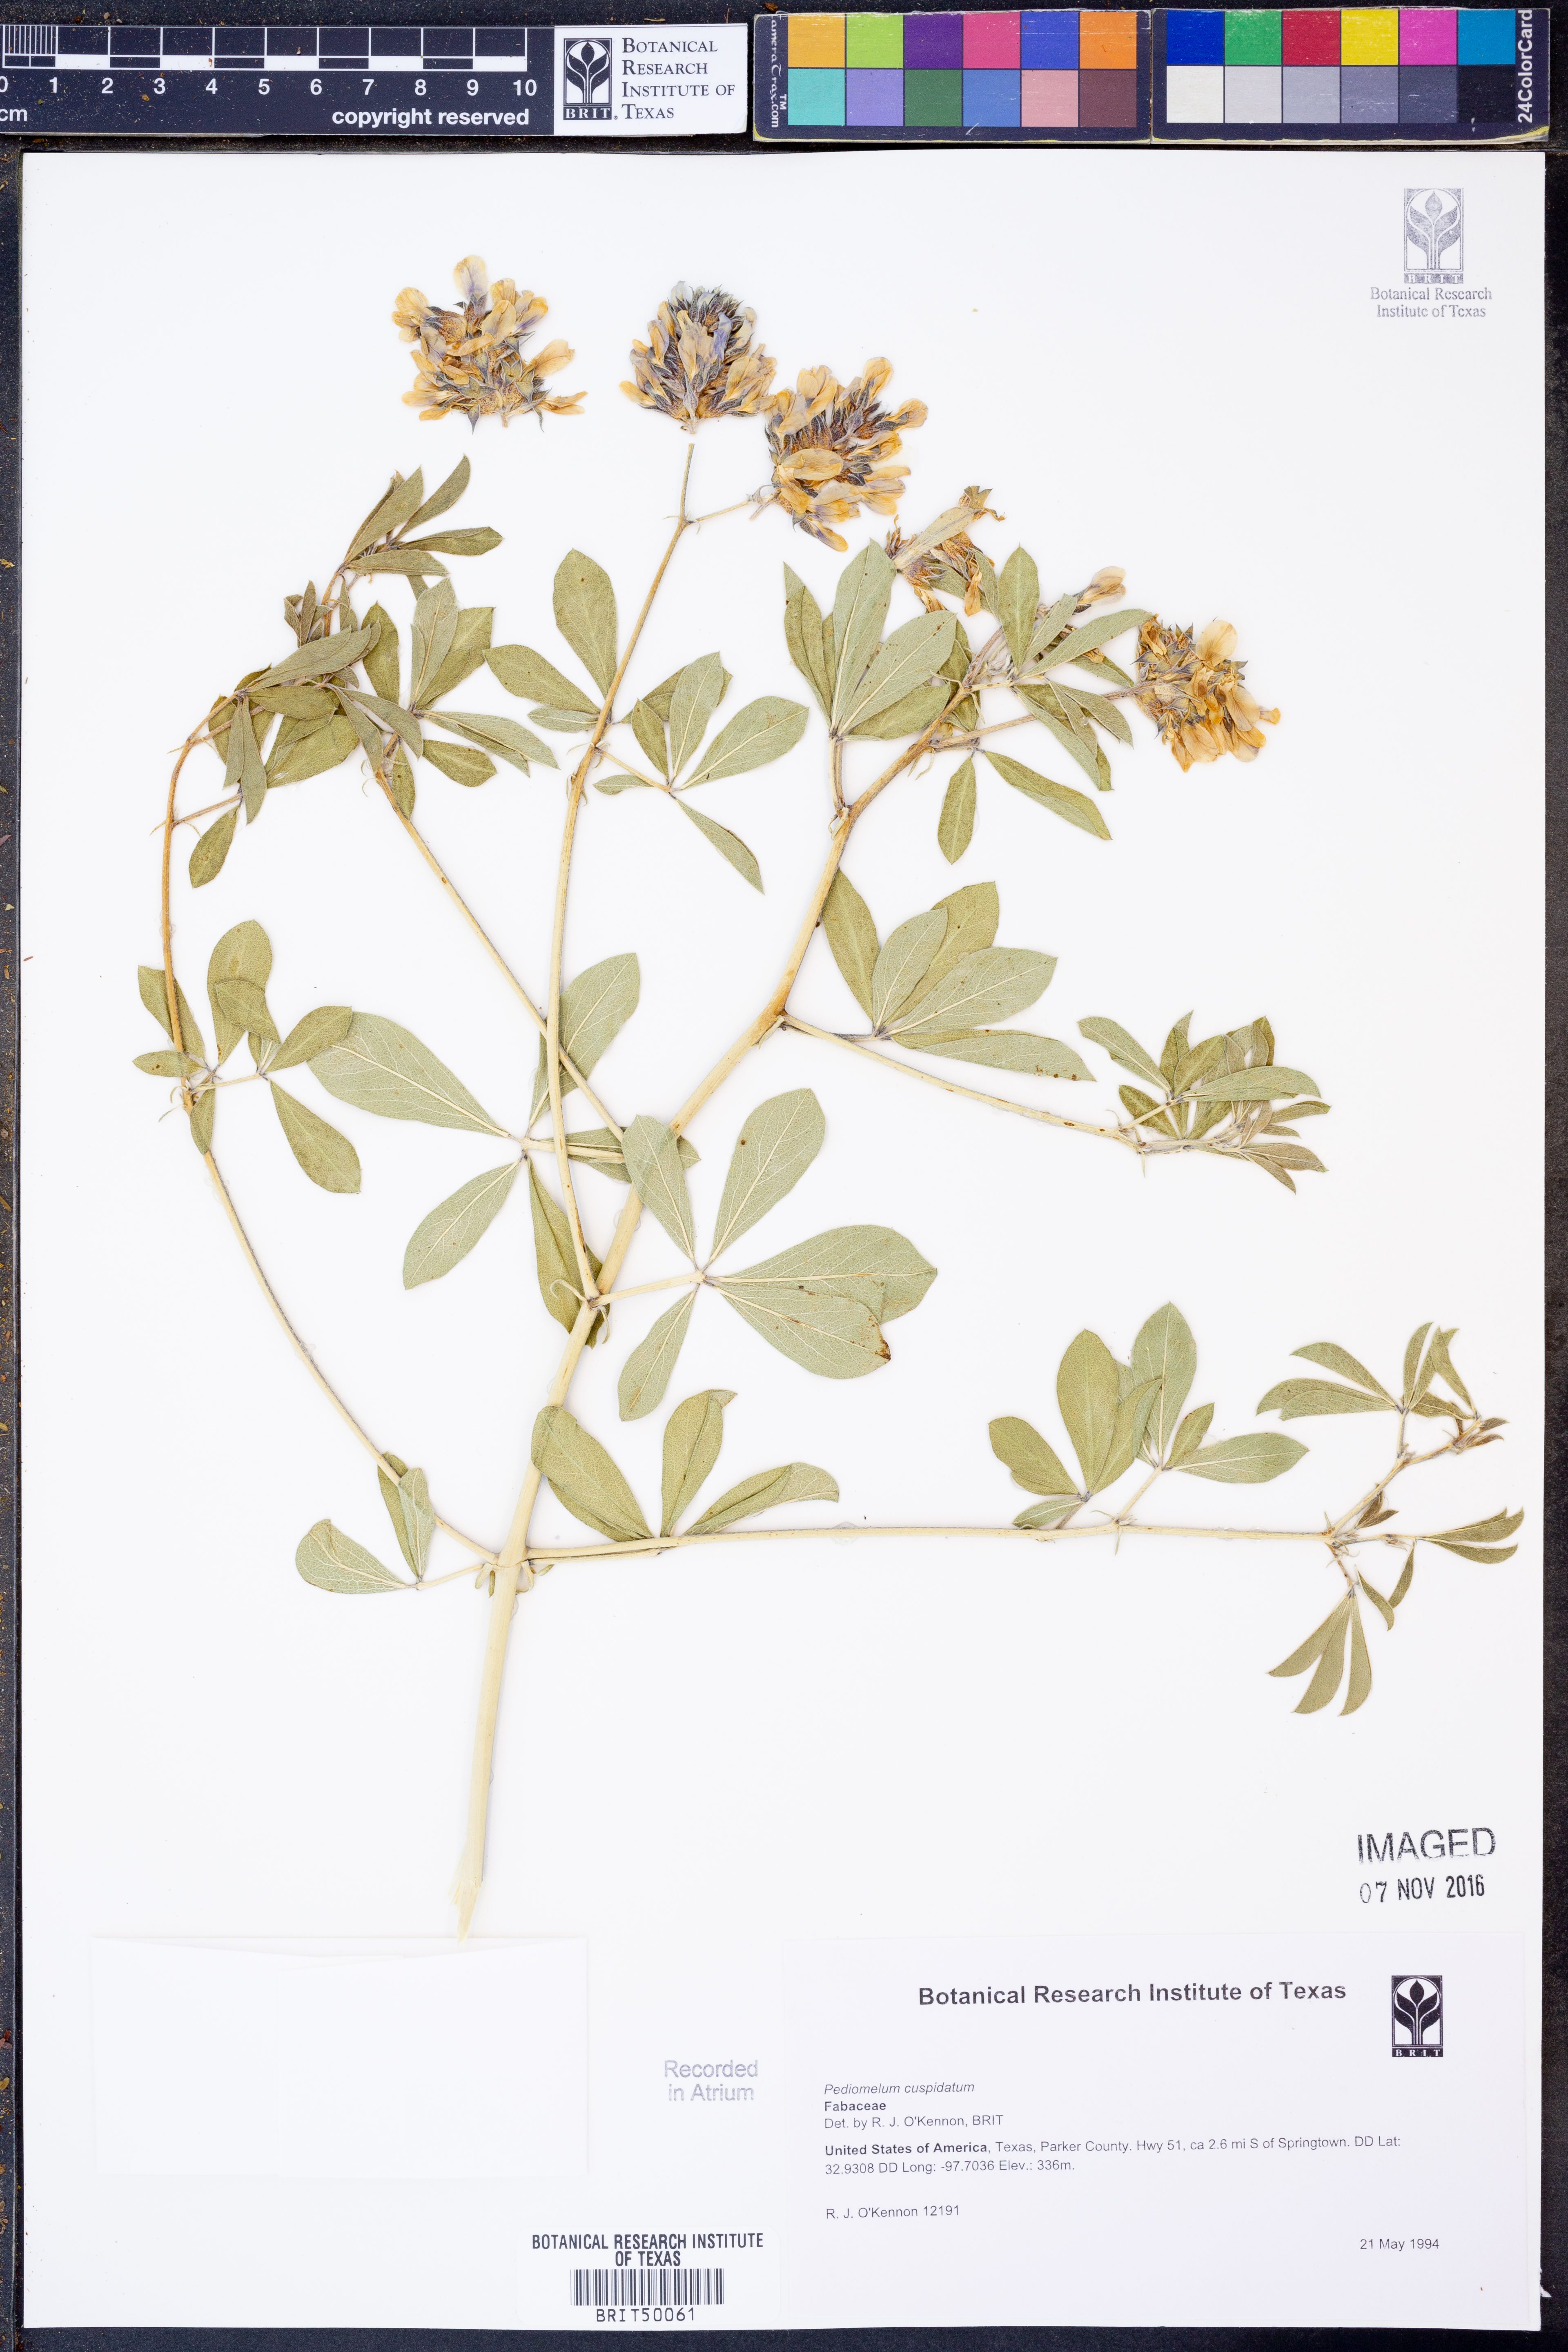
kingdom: Plantae
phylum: Tracheophyta
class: Magnoliopsida
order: Fabales
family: Fabaceae
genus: Pediomelum
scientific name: Pediomelum cuspidatum
